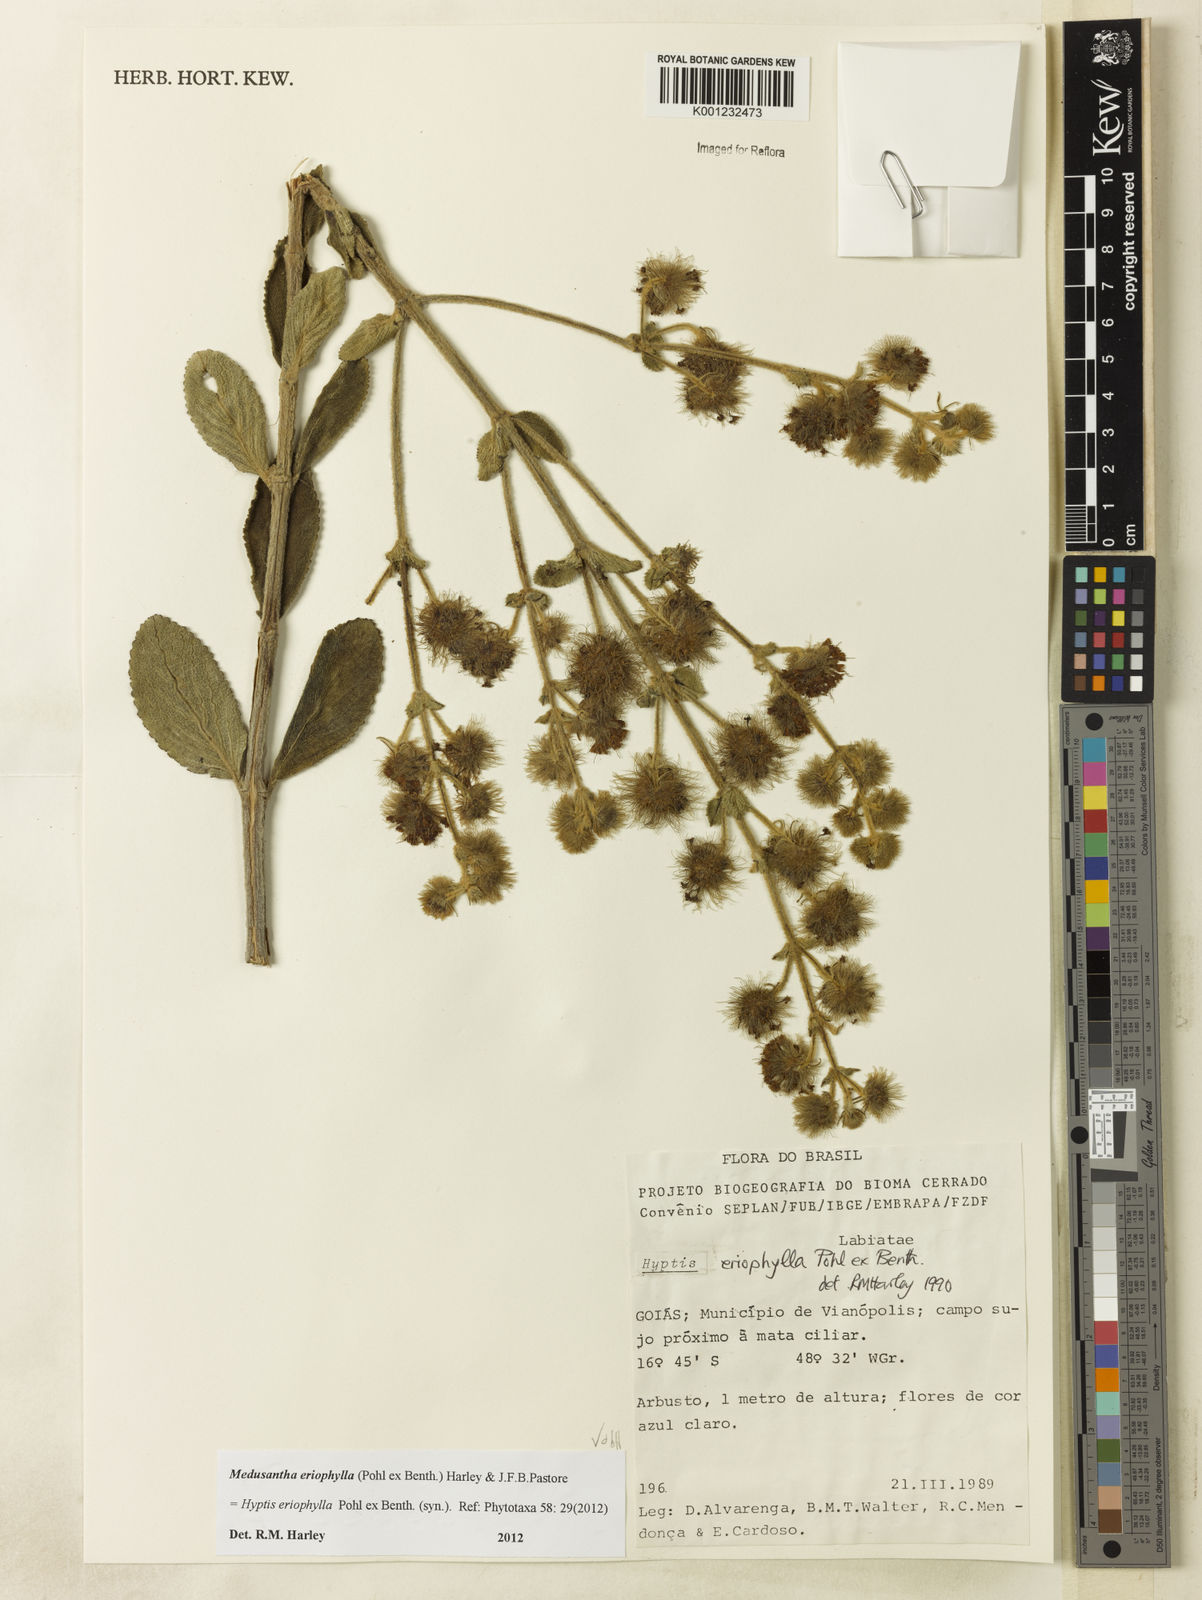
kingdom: Plantae
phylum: Tracheophyta
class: Magnoliopsida
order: Lamiales
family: Lamiaceae
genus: Medusantha
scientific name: Medusantha eriophylla
